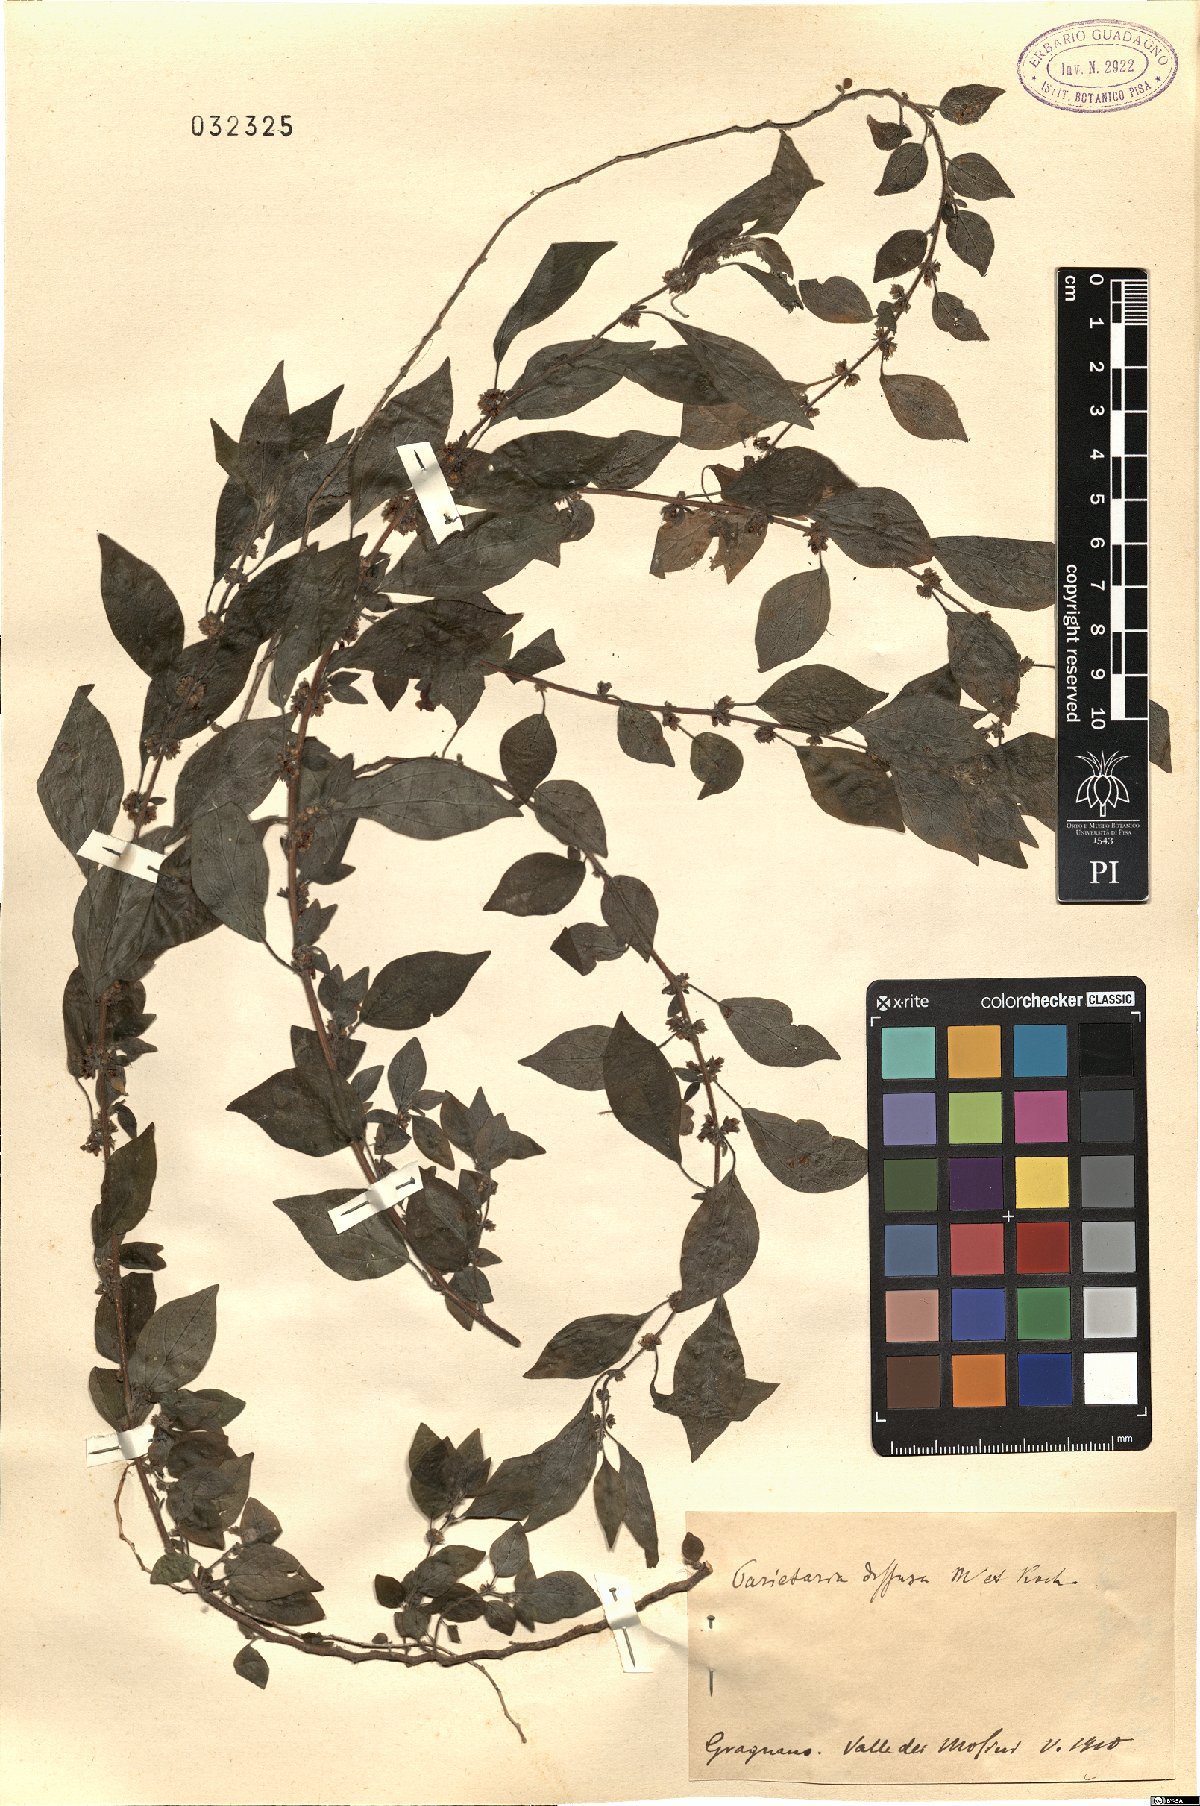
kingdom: Plantae
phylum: Tracheophyta
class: Magnoliopsida
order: Rosales
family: Urticaceae
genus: Parietaria
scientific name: Parietaria judaica
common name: Pellitory-of-the-wall
